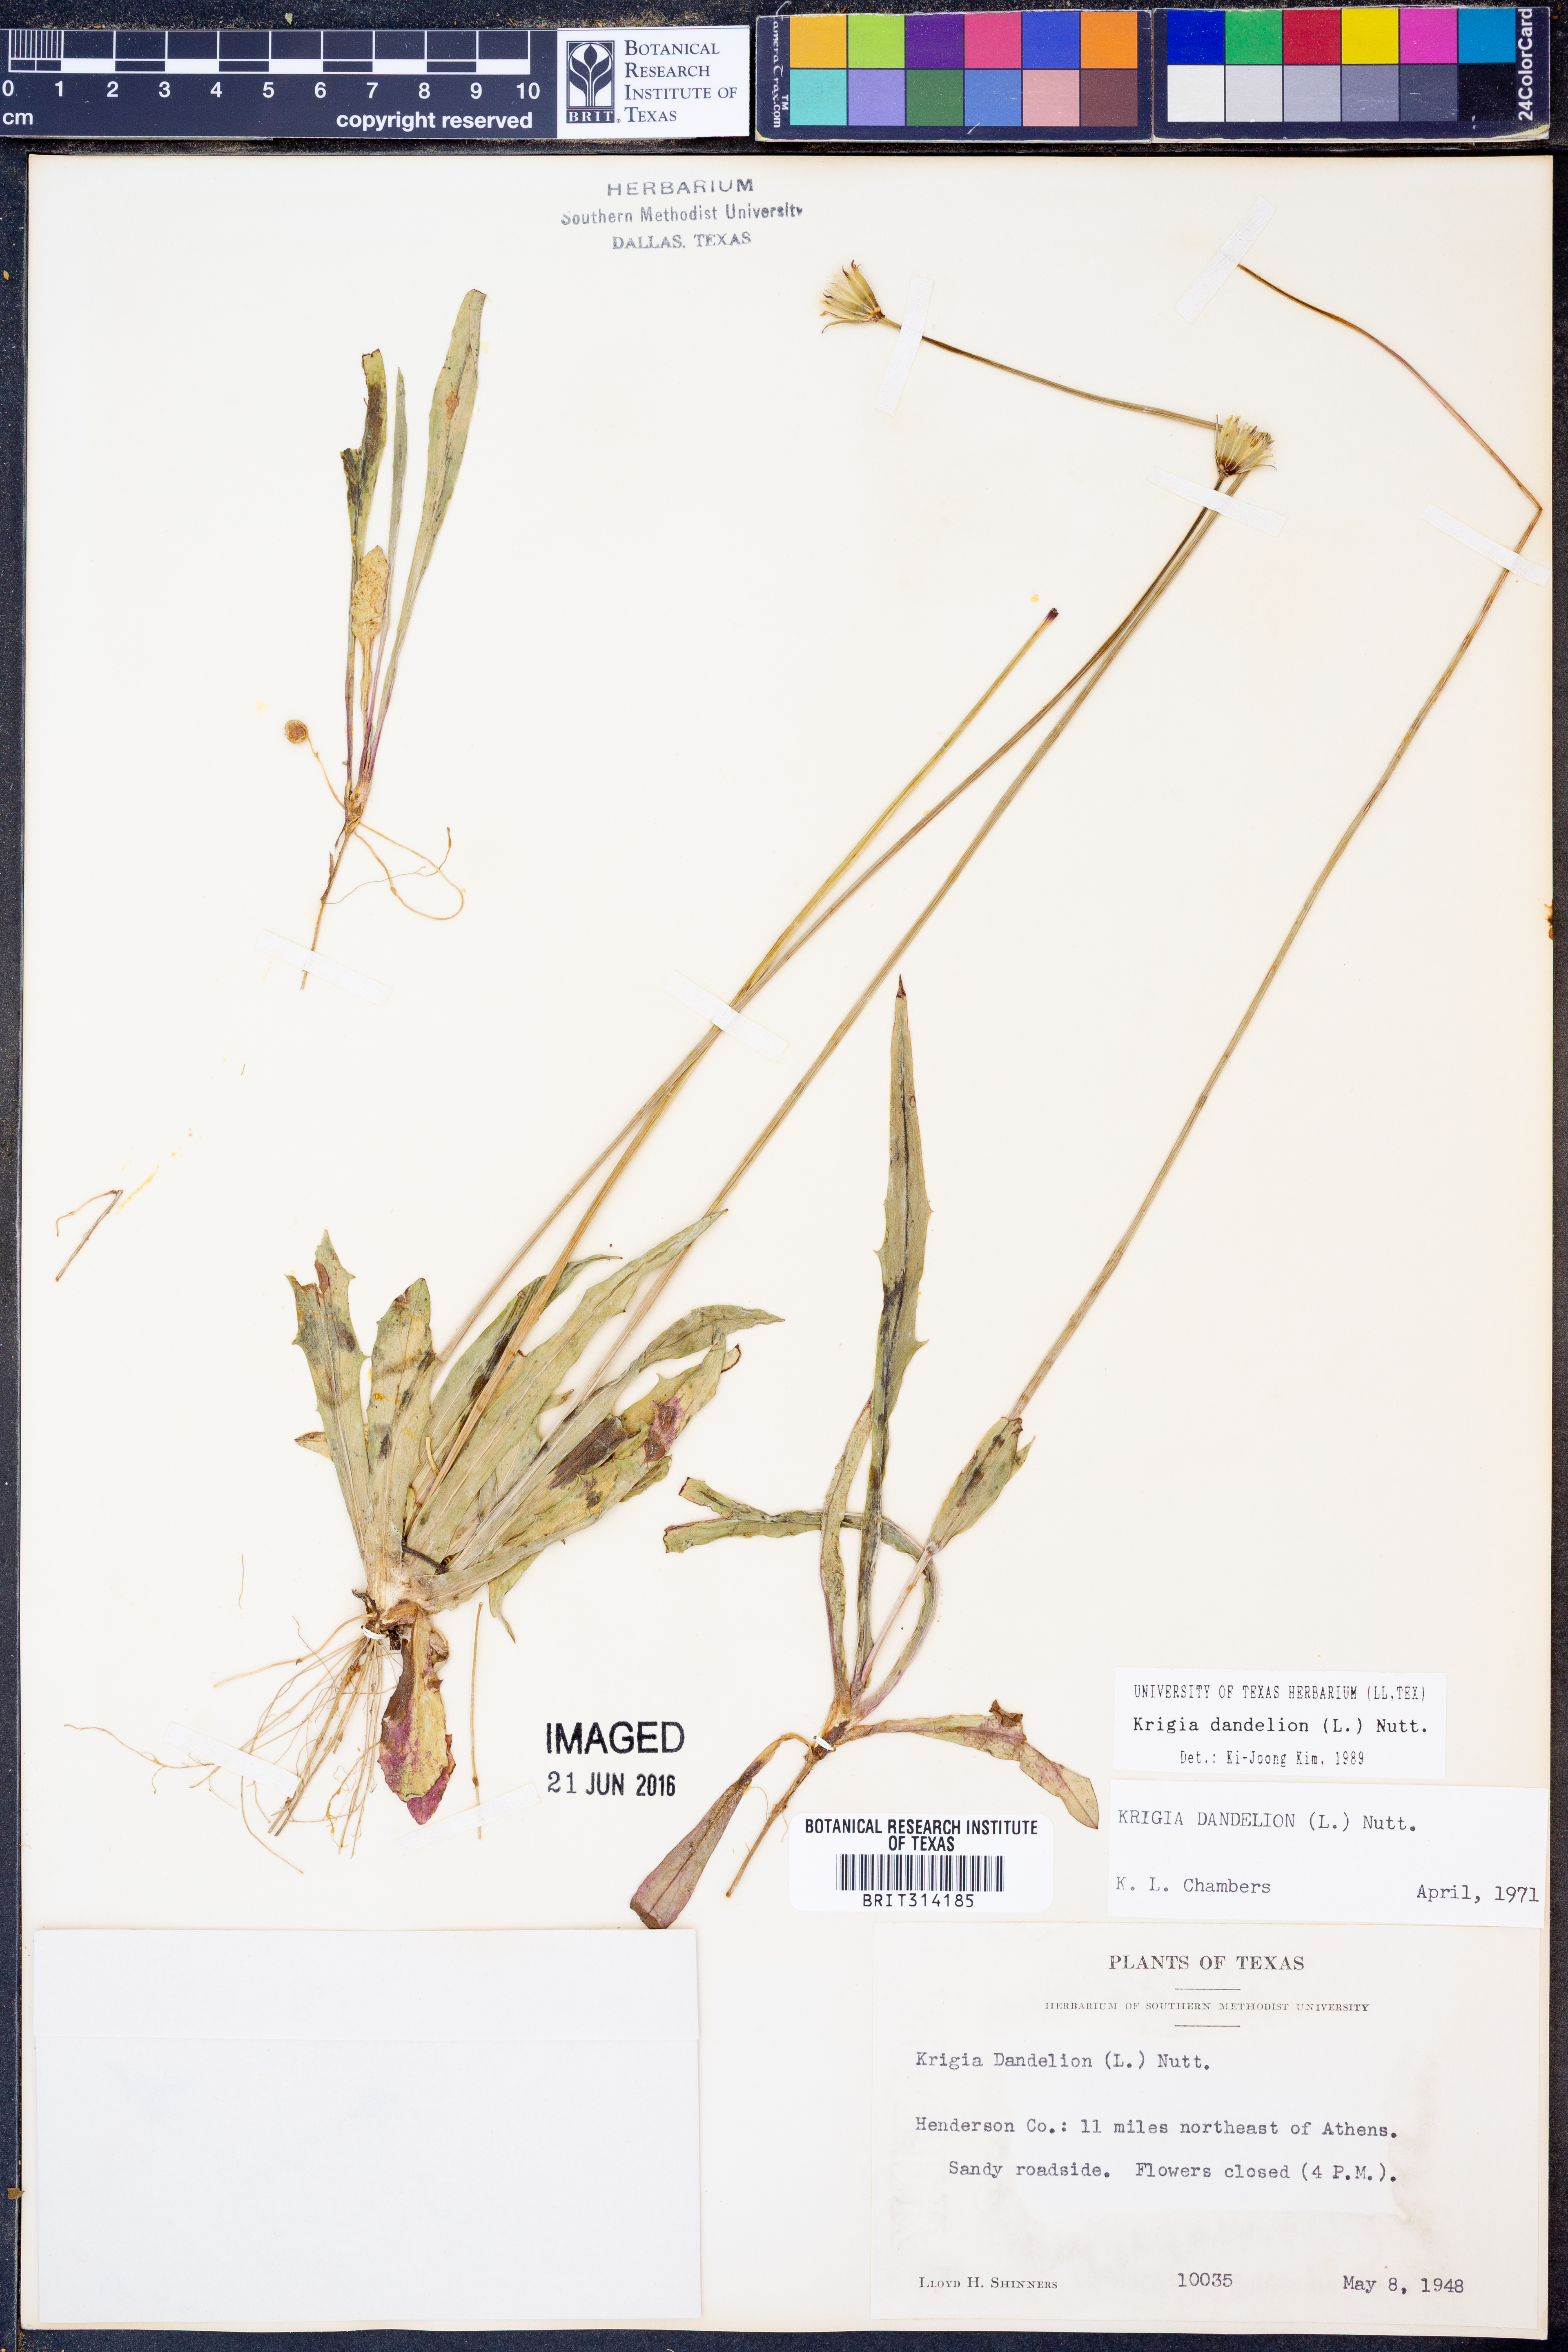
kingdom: Plantae
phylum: Tracheophyta
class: Magnoliopsida
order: Asterales
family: Asteraceae
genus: Krigia
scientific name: Krigia dandelion
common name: Colonial dwarf-dandelion
